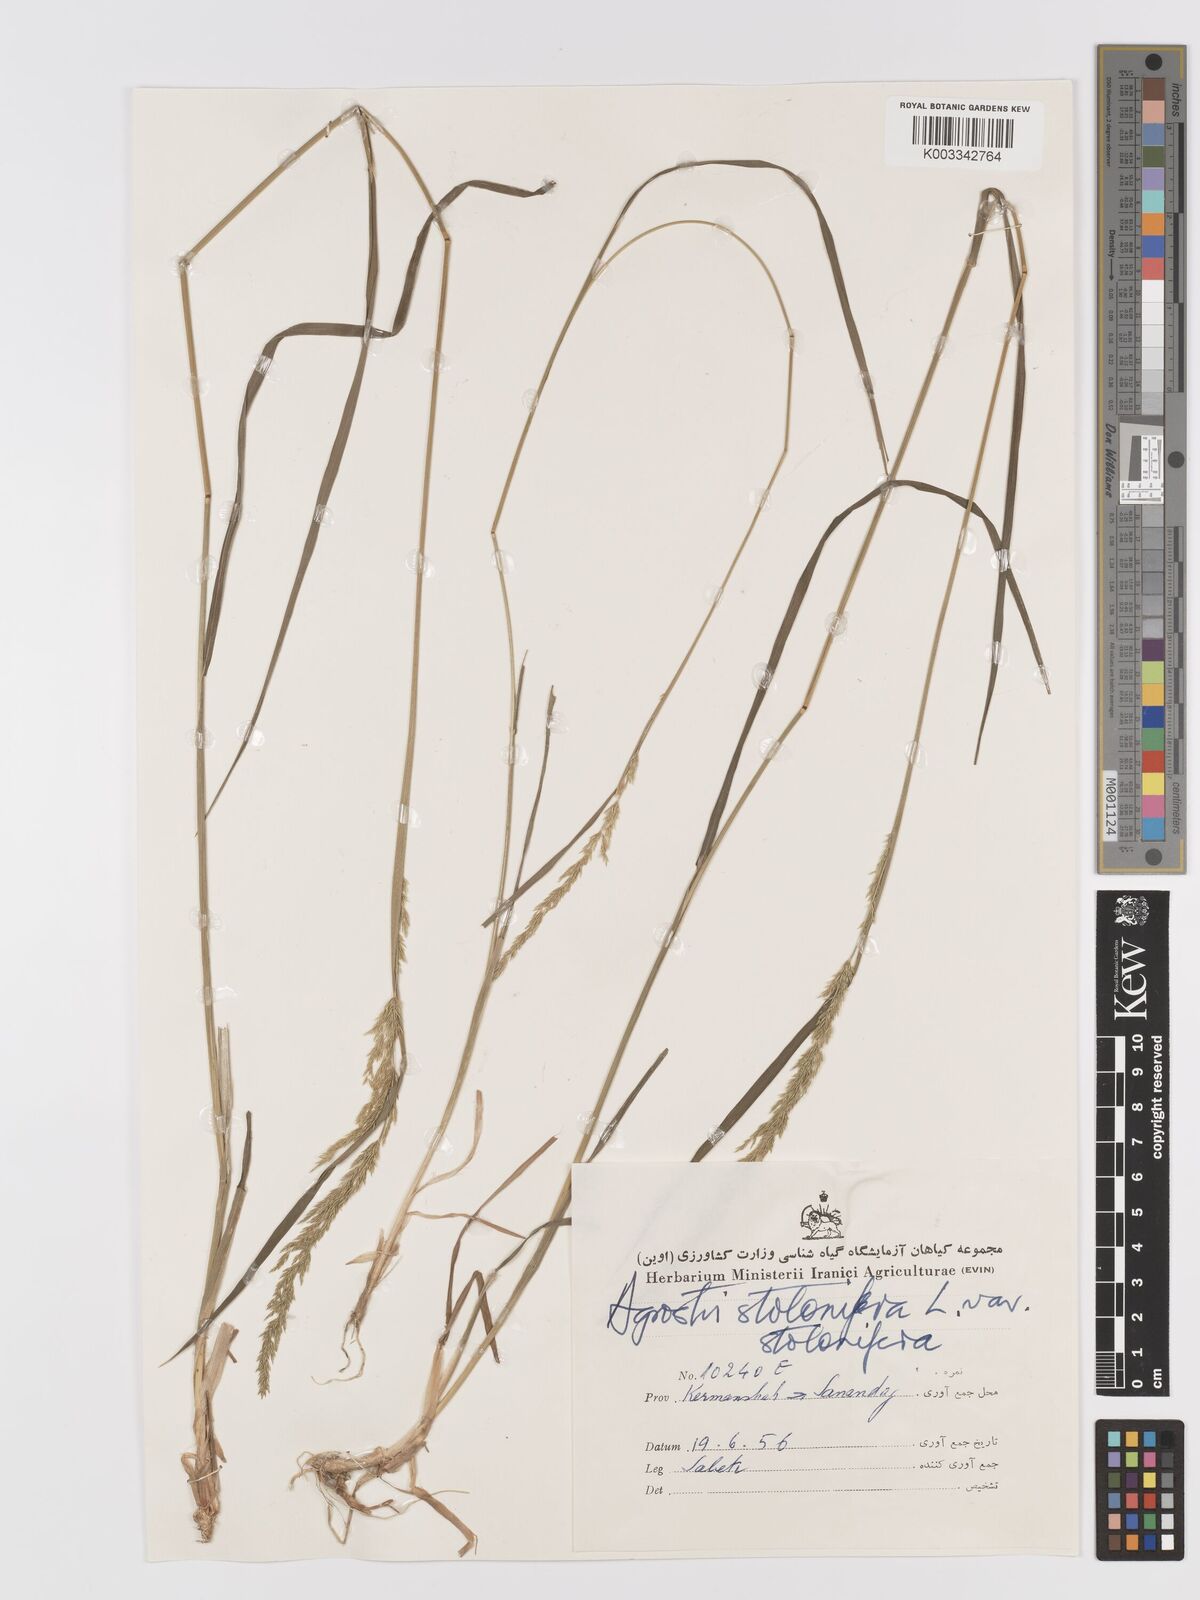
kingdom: Plantae
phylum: Tracheophyta
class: Liliopsida
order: Poales
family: Poaceae
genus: Agrostis
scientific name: Agrostis stolonifera
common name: Creeping bentgrass
